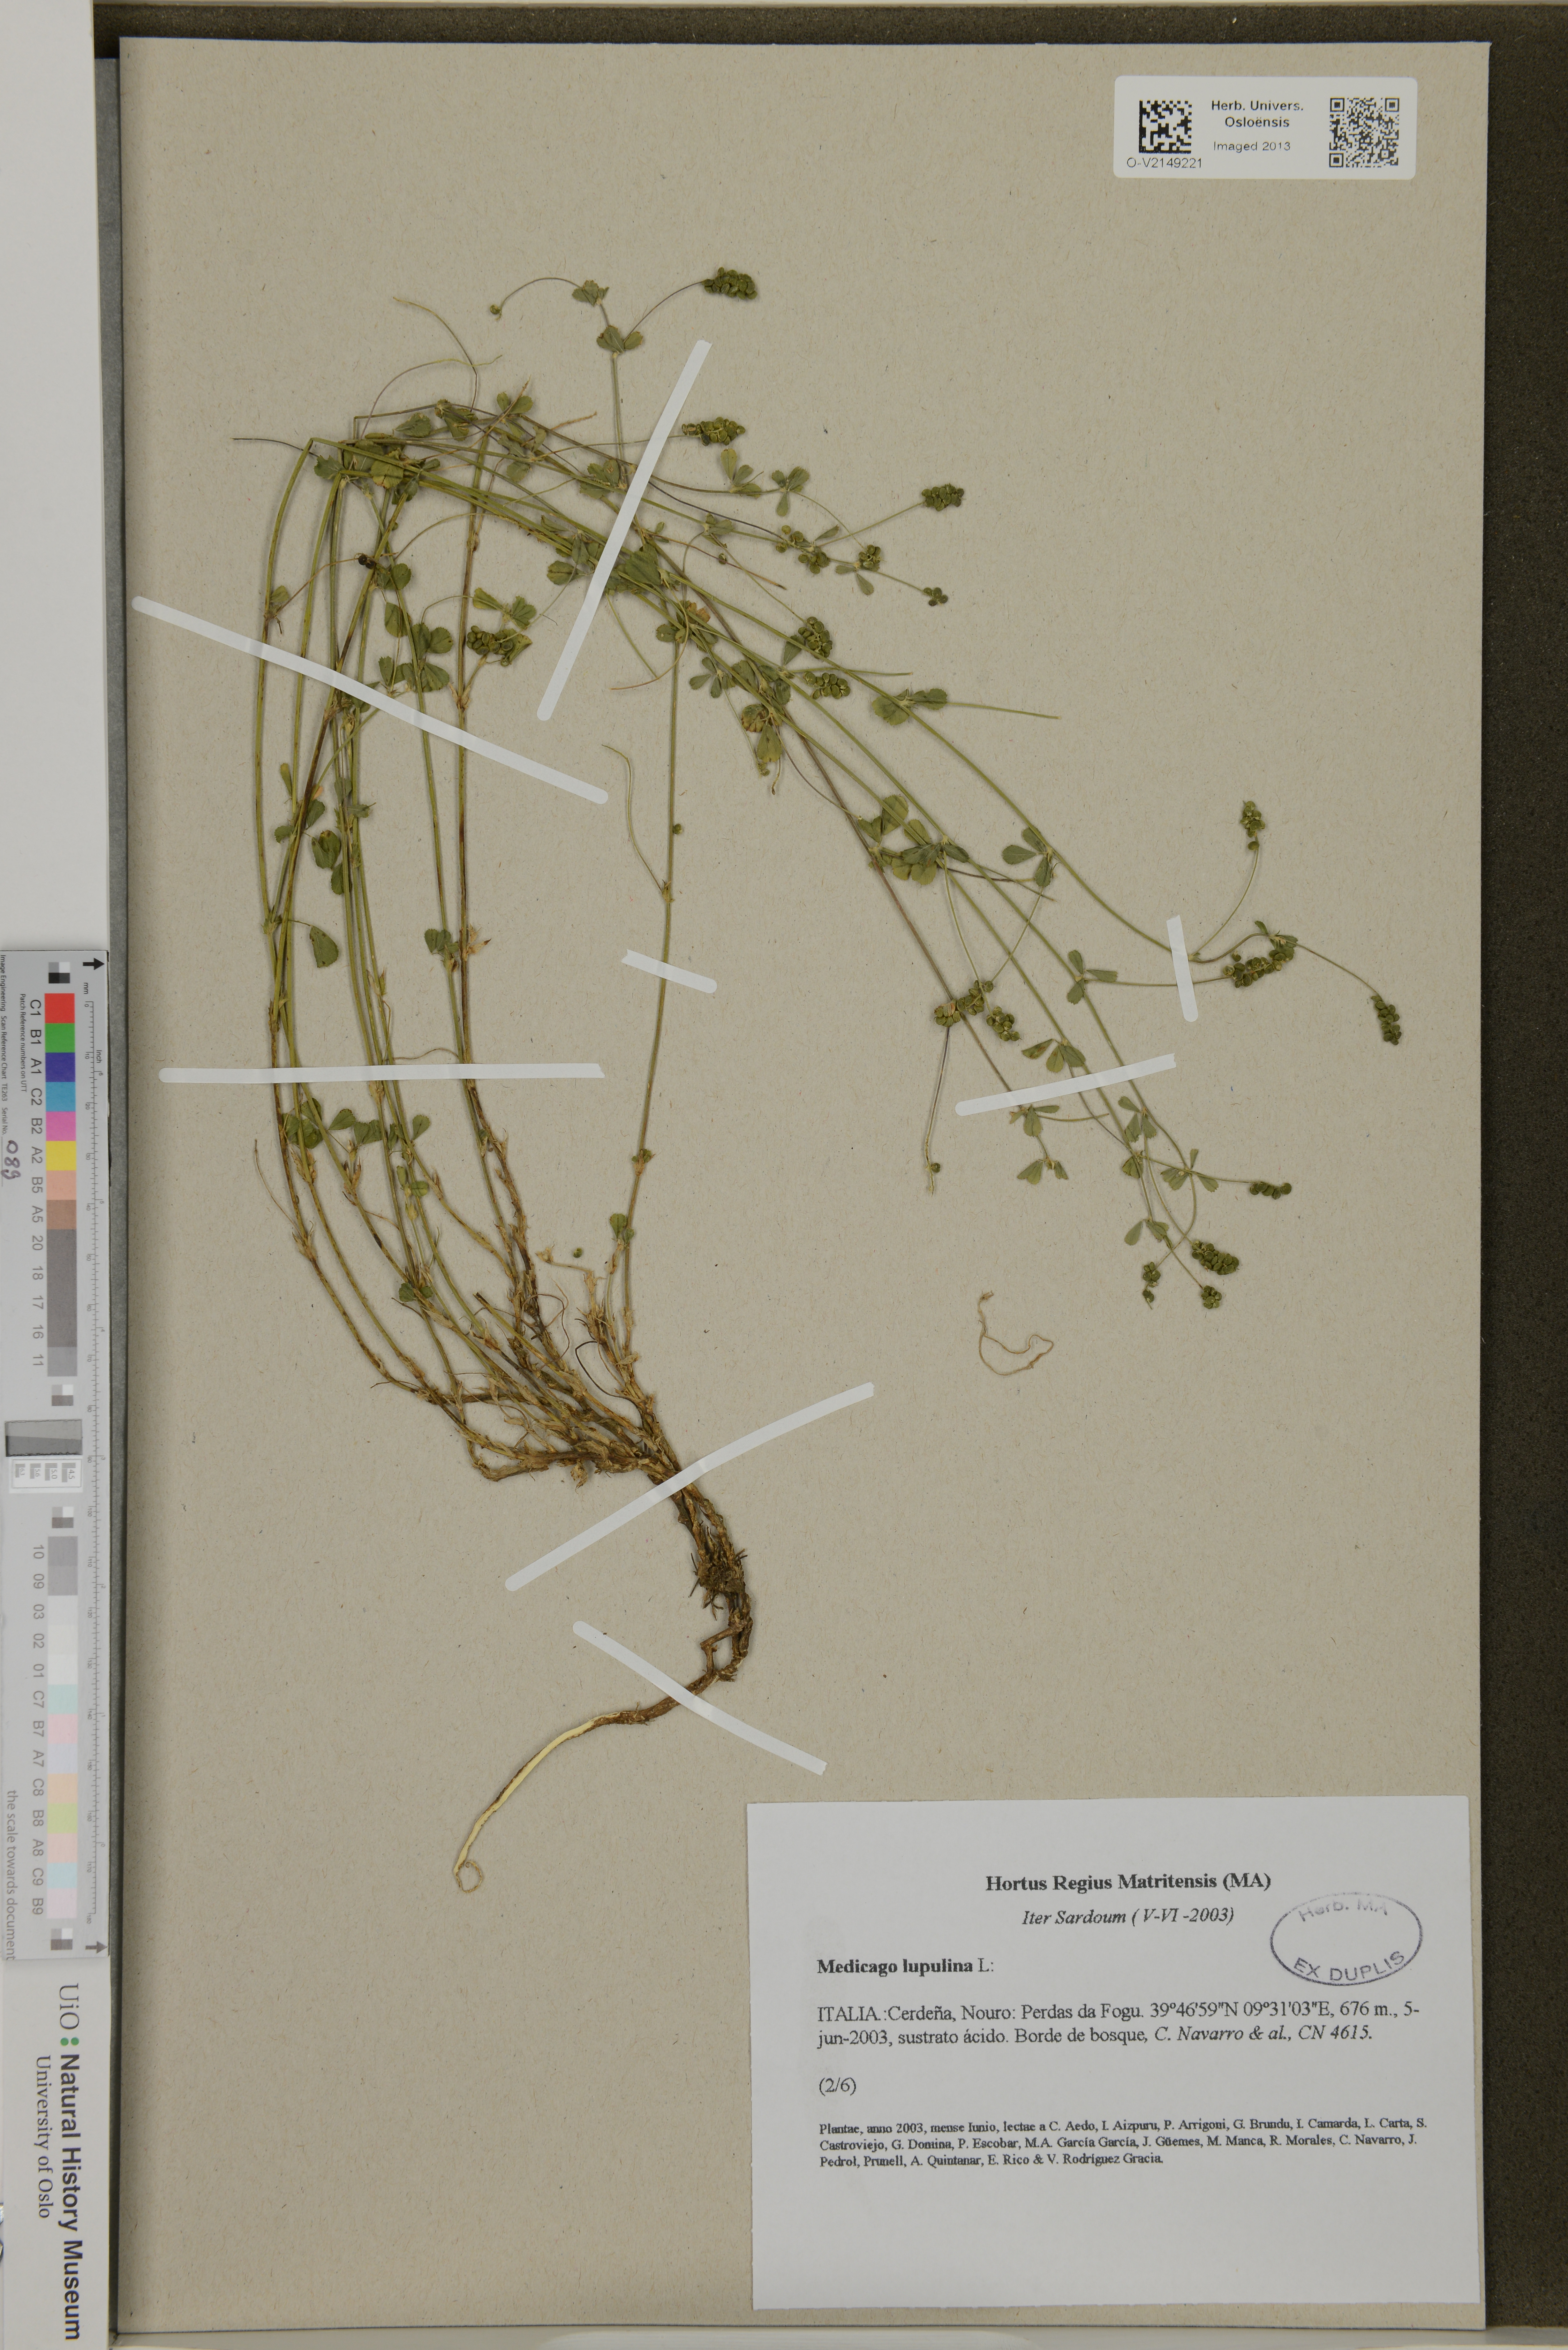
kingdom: Plantae
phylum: Tracheophyta
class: Magnoliopsida
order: Fabales
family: Fabaceae
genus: Medicago
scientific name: Medicago lupulina
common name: Black medick
